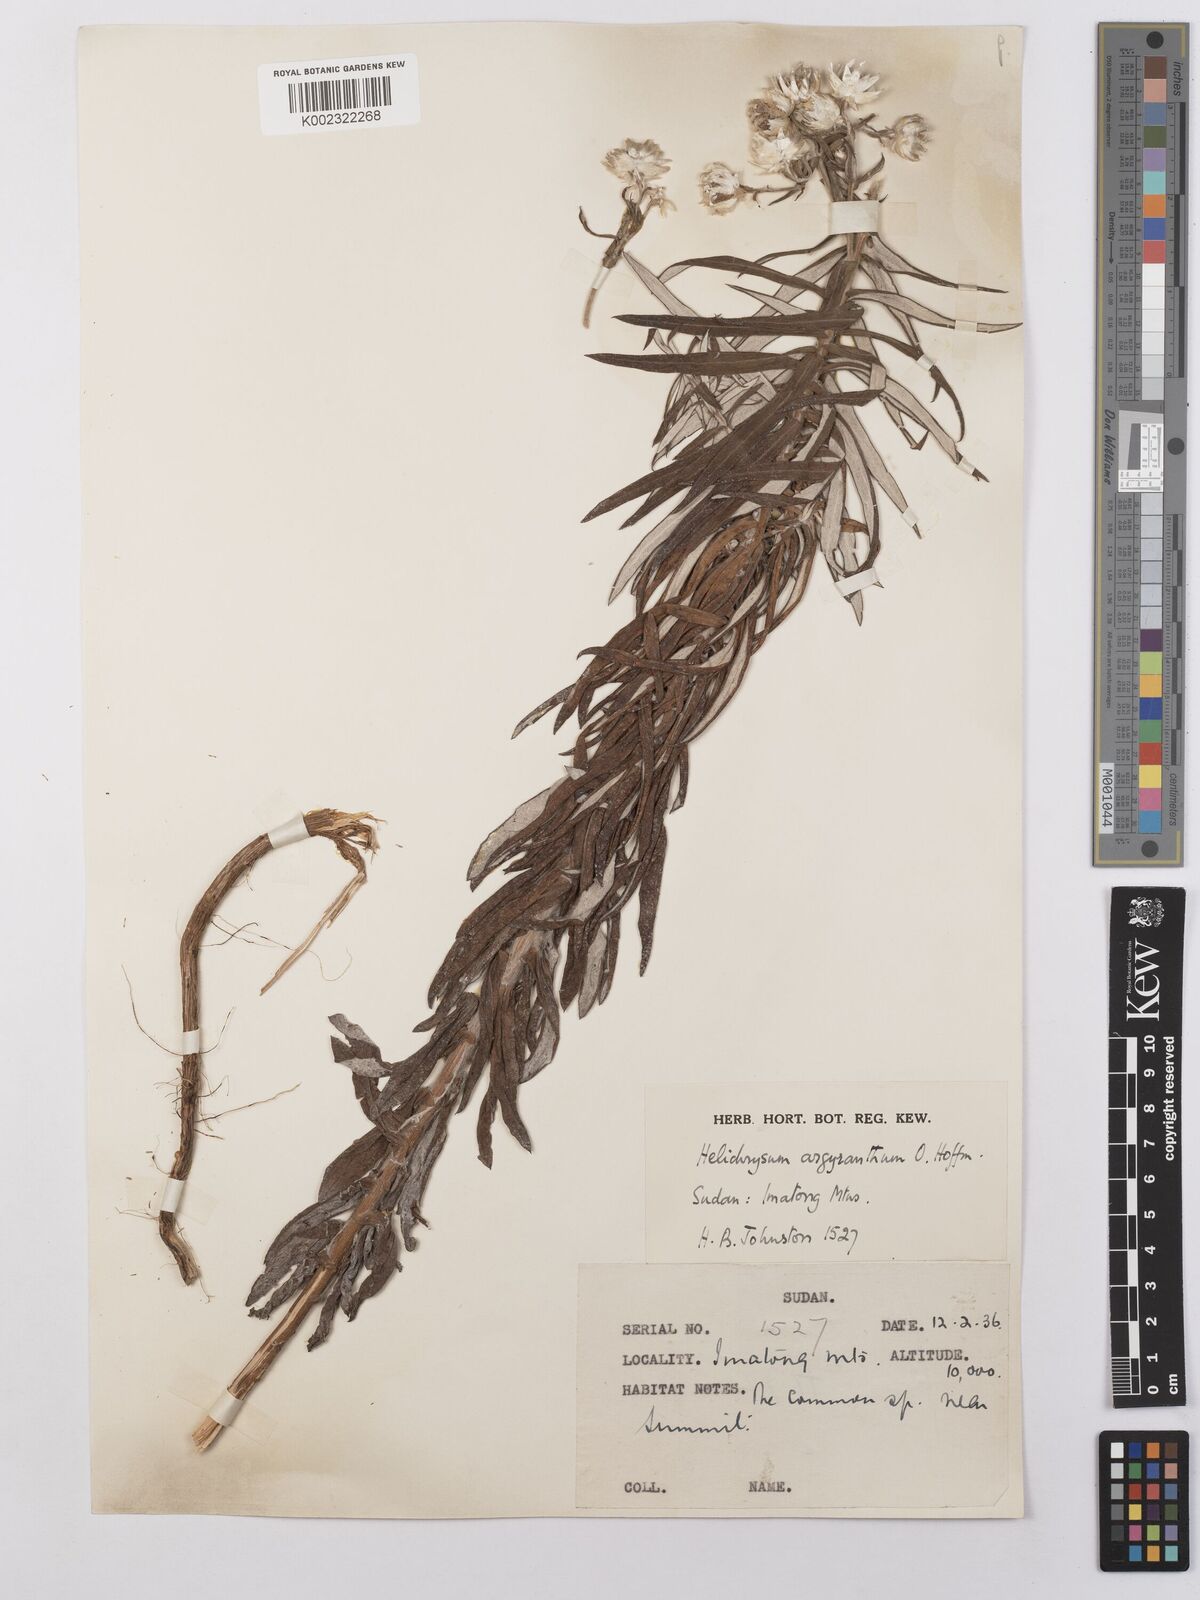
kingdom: Plantae
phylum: Tracheophyta
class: Magnoliopsida
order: Asterales
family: Asteraceae
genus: Helichrysum
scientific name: Helichrysum argyranthum
